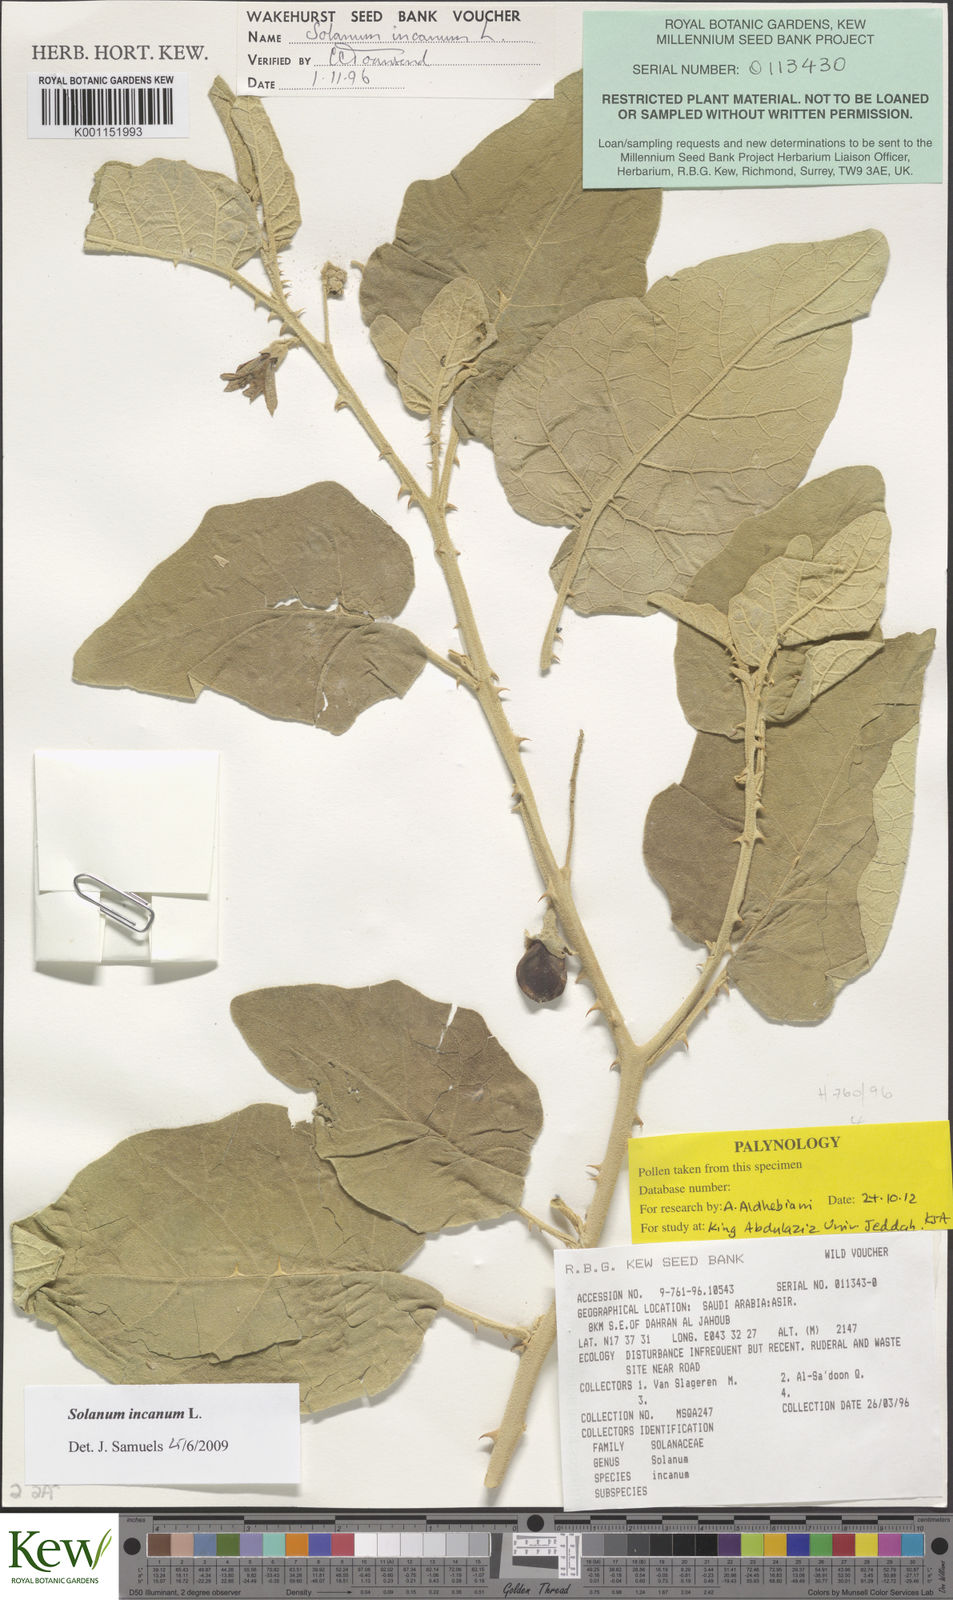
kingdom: Plantae
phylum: Tracheophyta
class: Magnoliopsida
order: Solanales
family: Solanaceae
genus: Solanum
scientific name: Solanum incanum
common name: Bitter apple
